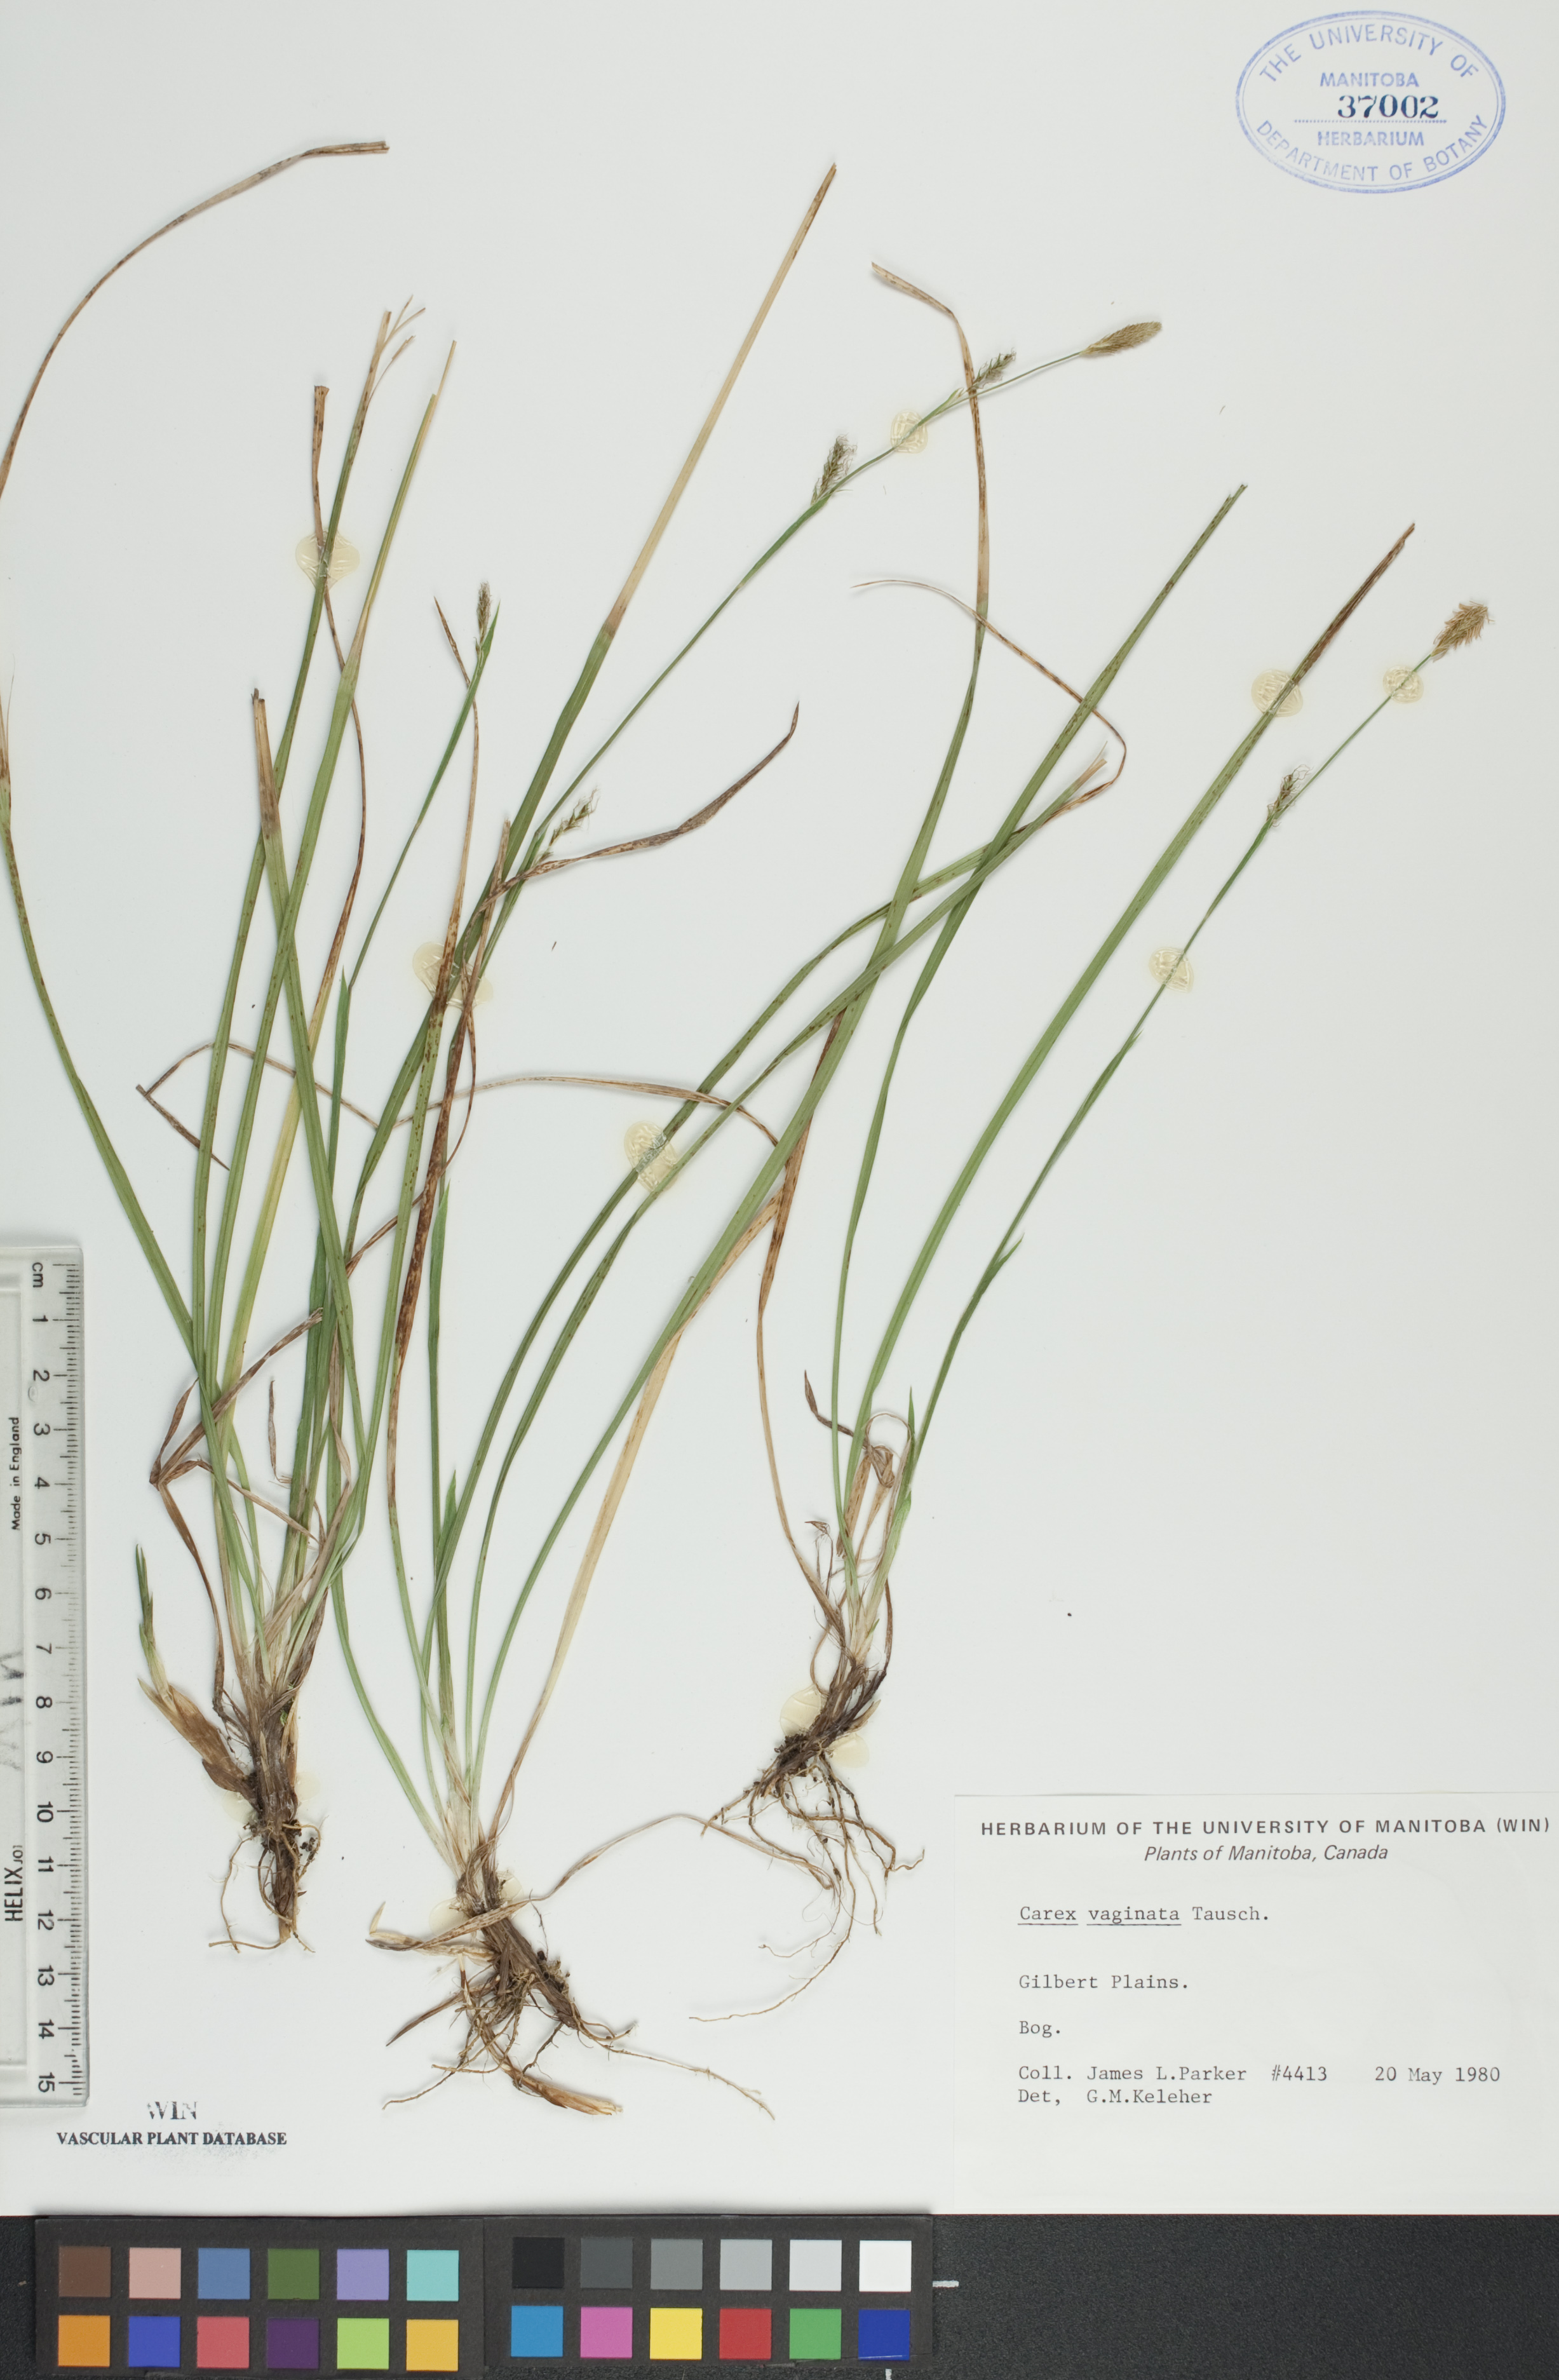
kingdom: Plantae
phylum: Tracheophyta
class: Liliopsida
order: Poales
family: Cyperaceae
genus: Carex
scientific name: Carex vaginata
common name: Sheathed sedge
